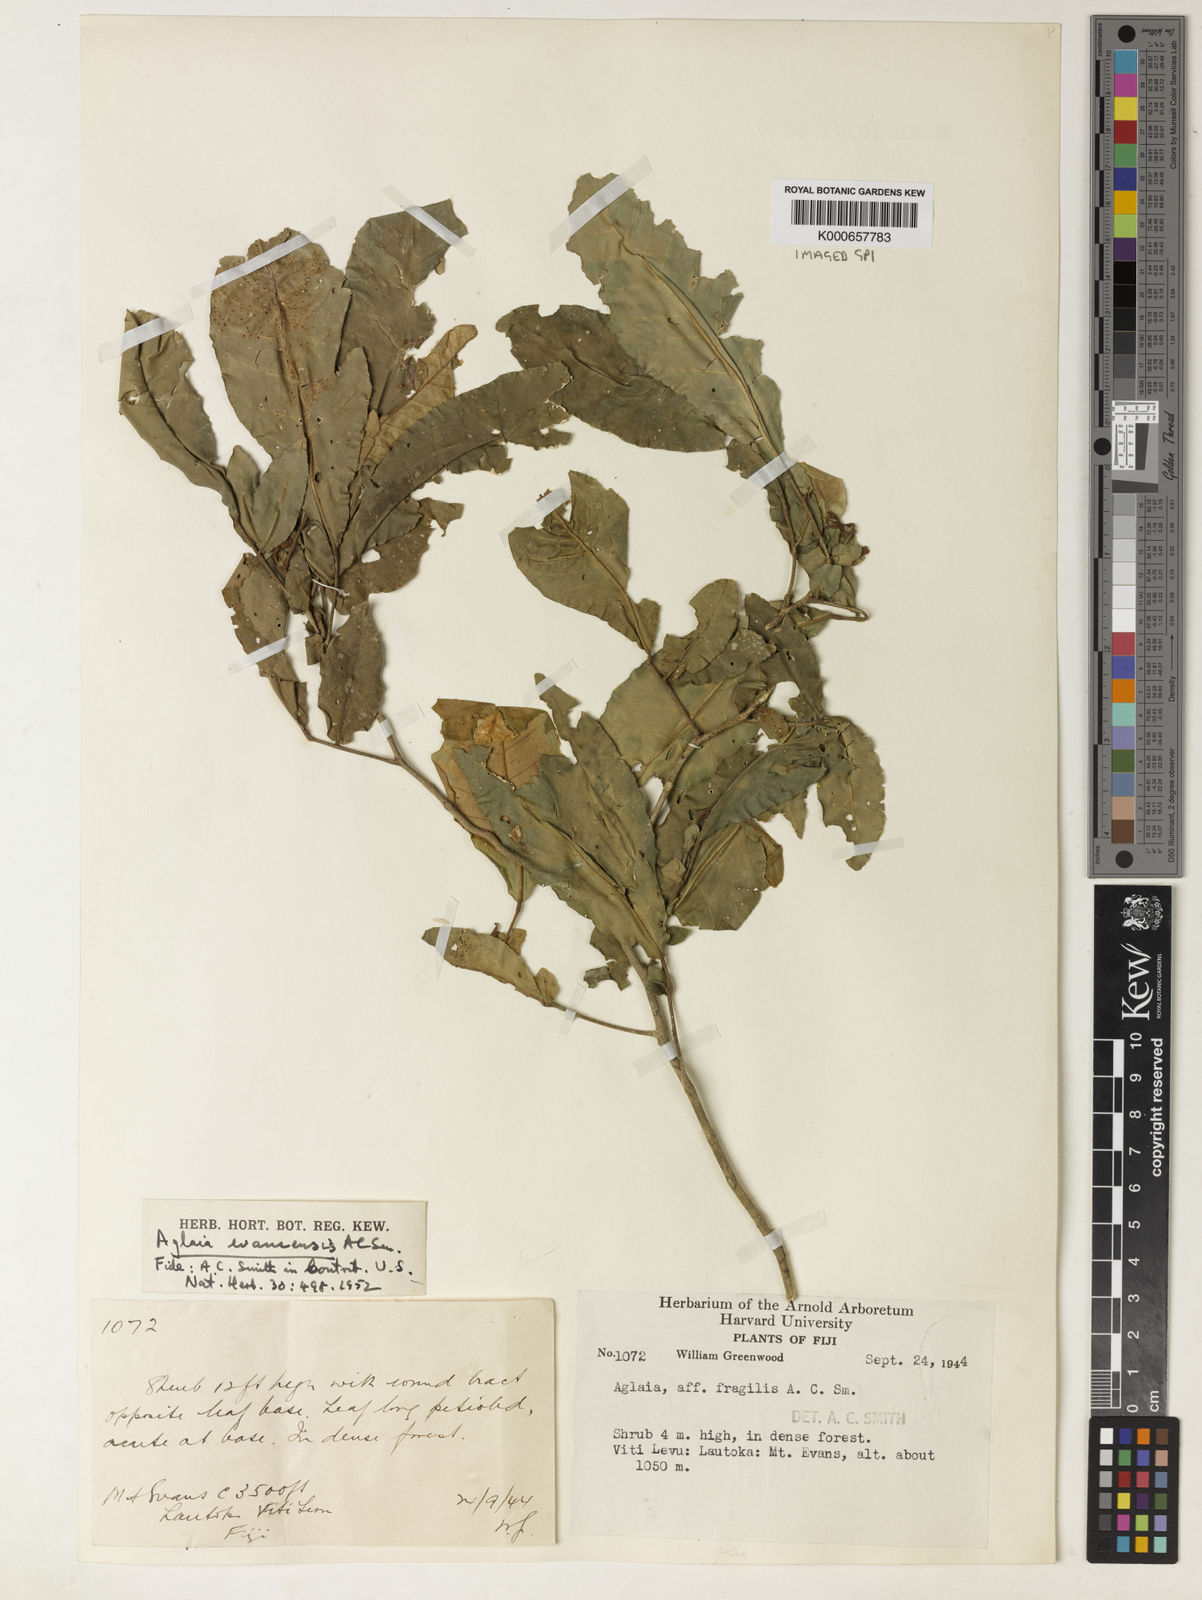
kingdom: Plantae
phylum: Tracheophyta
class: Magnoliopsida
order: Sapindales
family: Meliaceae
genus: Aglaia
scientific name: Aglaia evansensis
